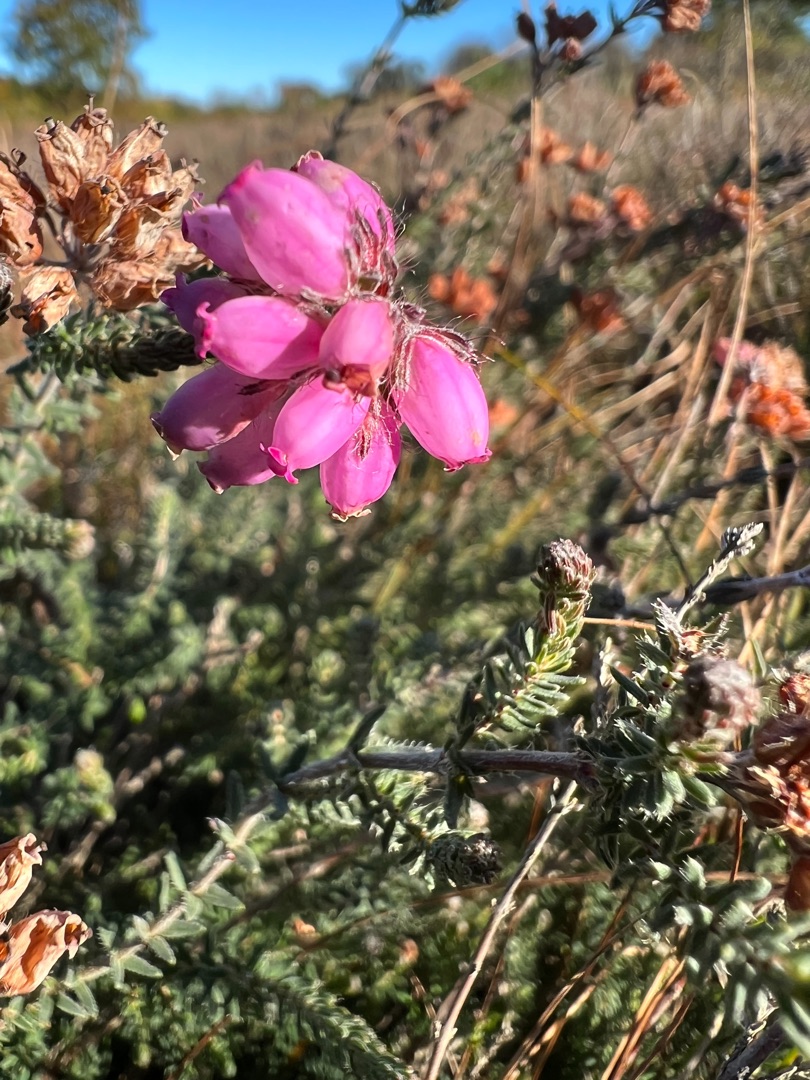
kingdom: Plantae
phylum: Tracheophyta
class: Magnoliopsida
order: Ericales
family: Ericaceae
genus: Erica
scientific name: Erica tetralix
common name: Klokkelyng
